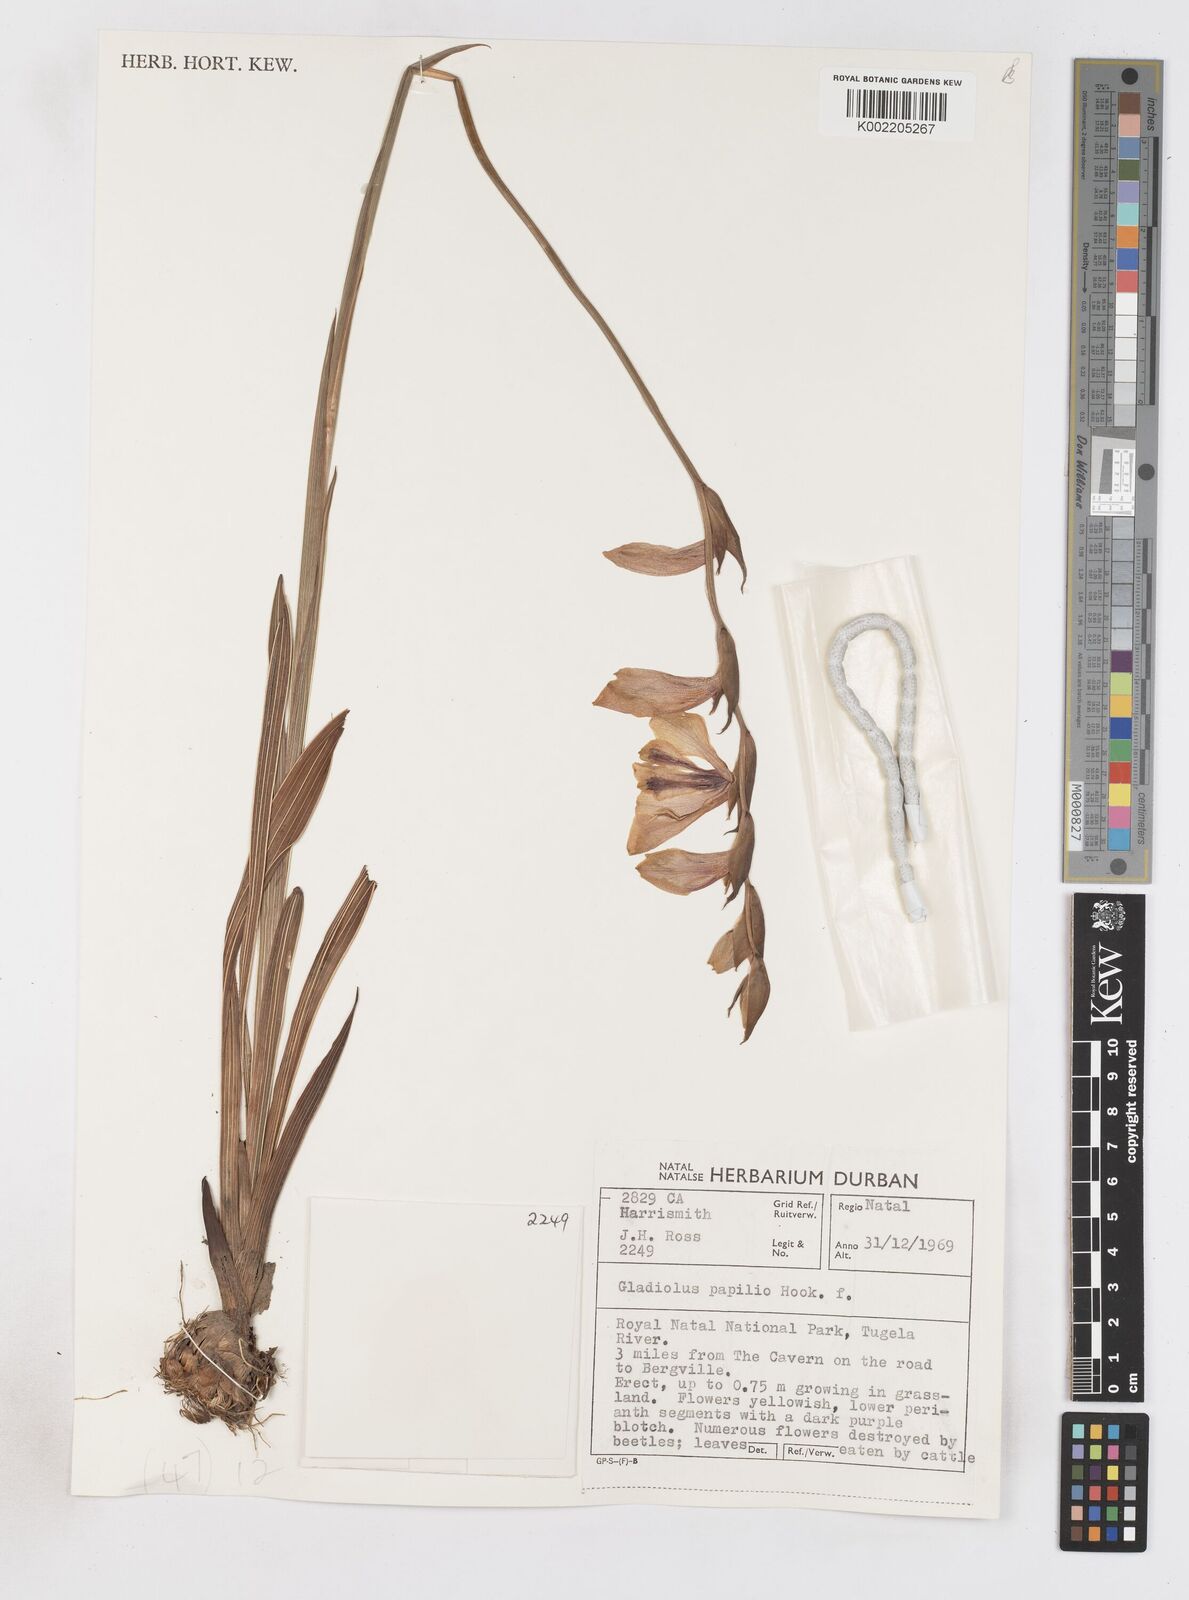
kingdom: Plantae
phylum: Tracheophyta
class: Liliopsida
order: Asparagales
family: Iridaceae
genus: Gladiolus
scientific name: Gladiolus papilio
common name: Goldblotch gladiolus
